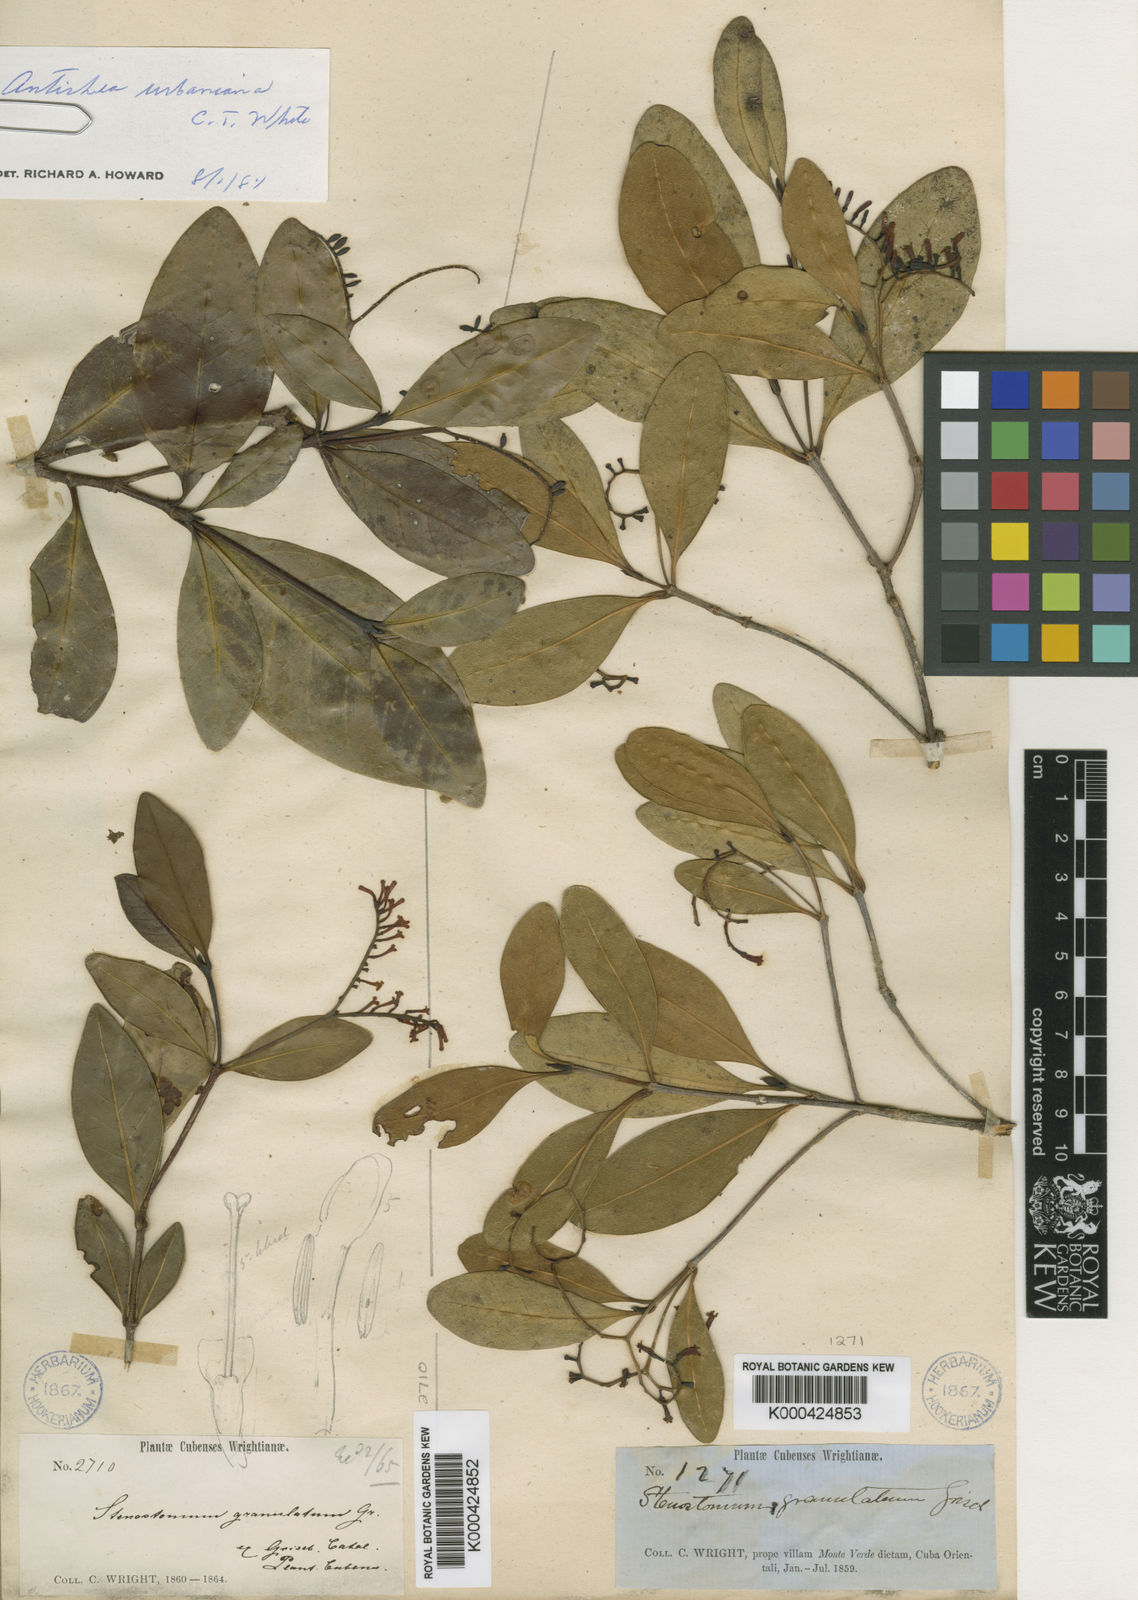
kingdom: Plantae
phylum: Tracheophyta
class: Magnoliopsida
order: Gentianales
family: Rubiaceae
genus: Stenostomum
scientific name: Stenostomum granulatum
